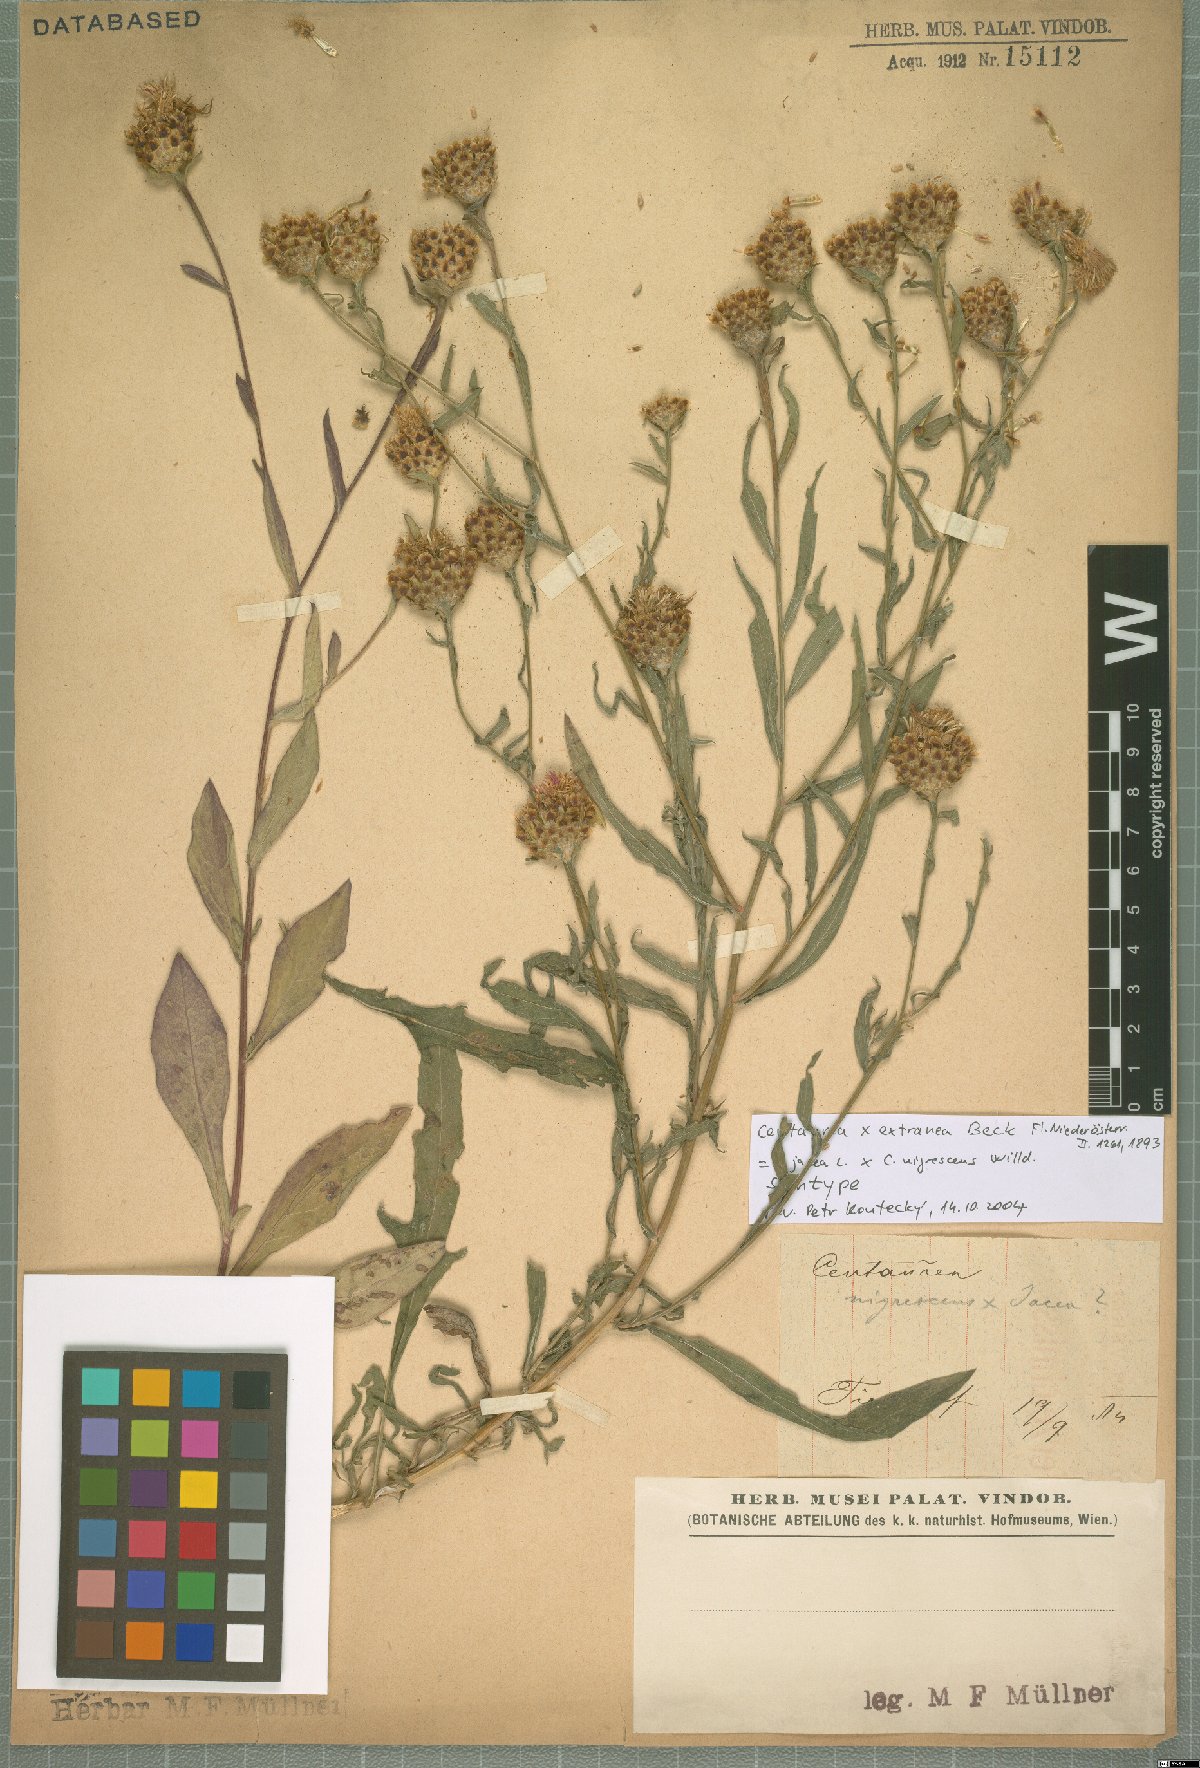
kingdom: Plantae
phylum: Tracheophyta
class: Magnoliopsida
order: Asterales
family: Asteraceae
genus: Centaurea
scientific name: Centaurea extranea
